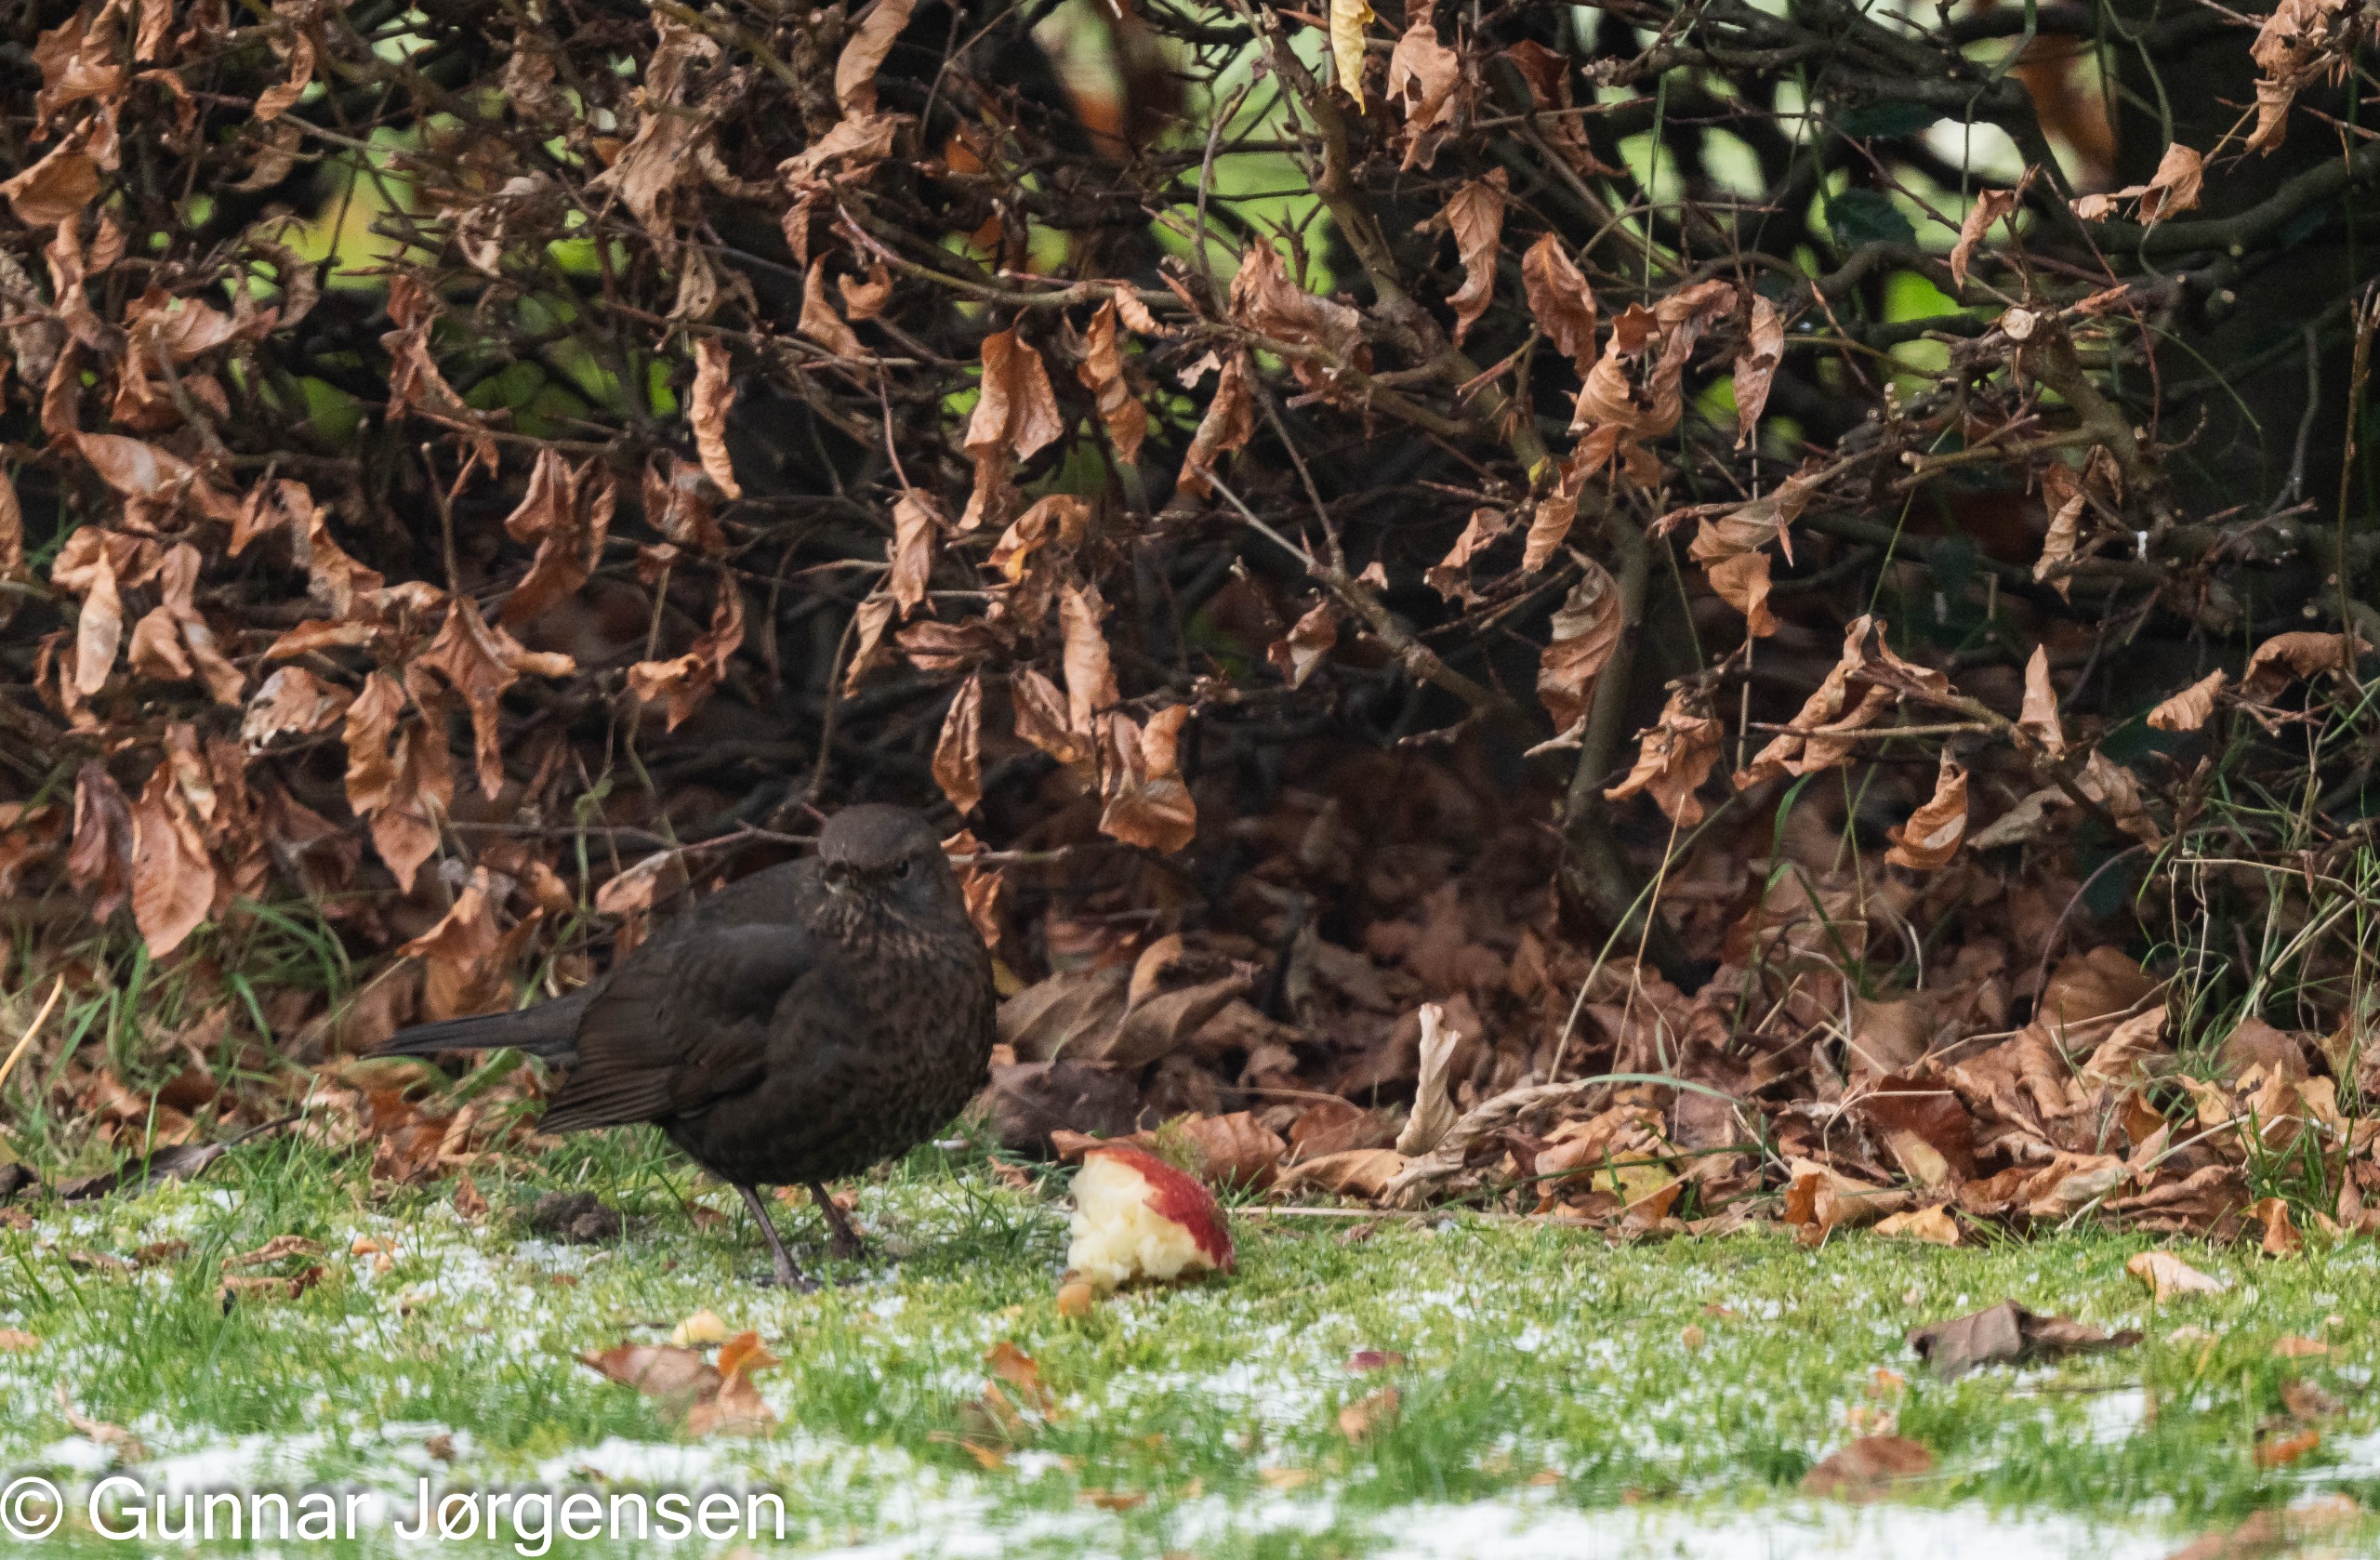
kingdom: Animalia
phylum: Chordata
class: Aves
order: Passeriformes
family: Turdidae
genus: Turdus
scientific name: Turdus merula
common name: Solsort
